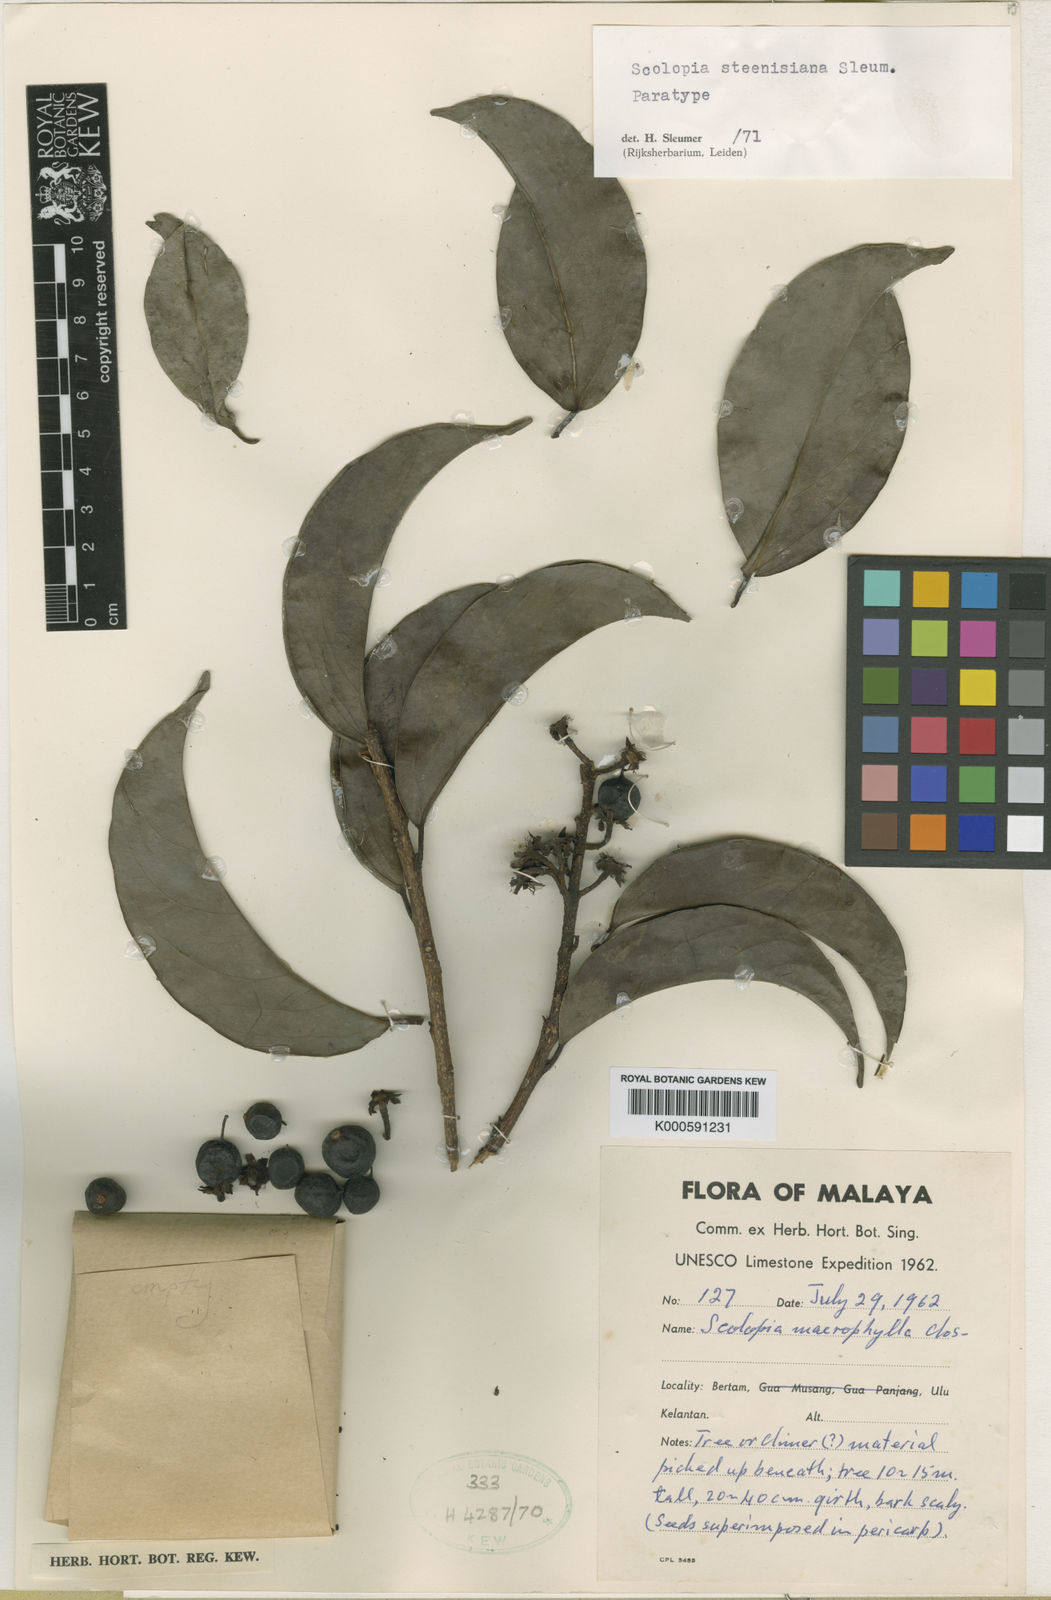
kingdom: Plantae
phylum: Tracheophyta
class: Magnoliopsida
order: Malpighiales
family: Salicaceae
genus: Scolopia
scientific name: Scolopia steenisiana
